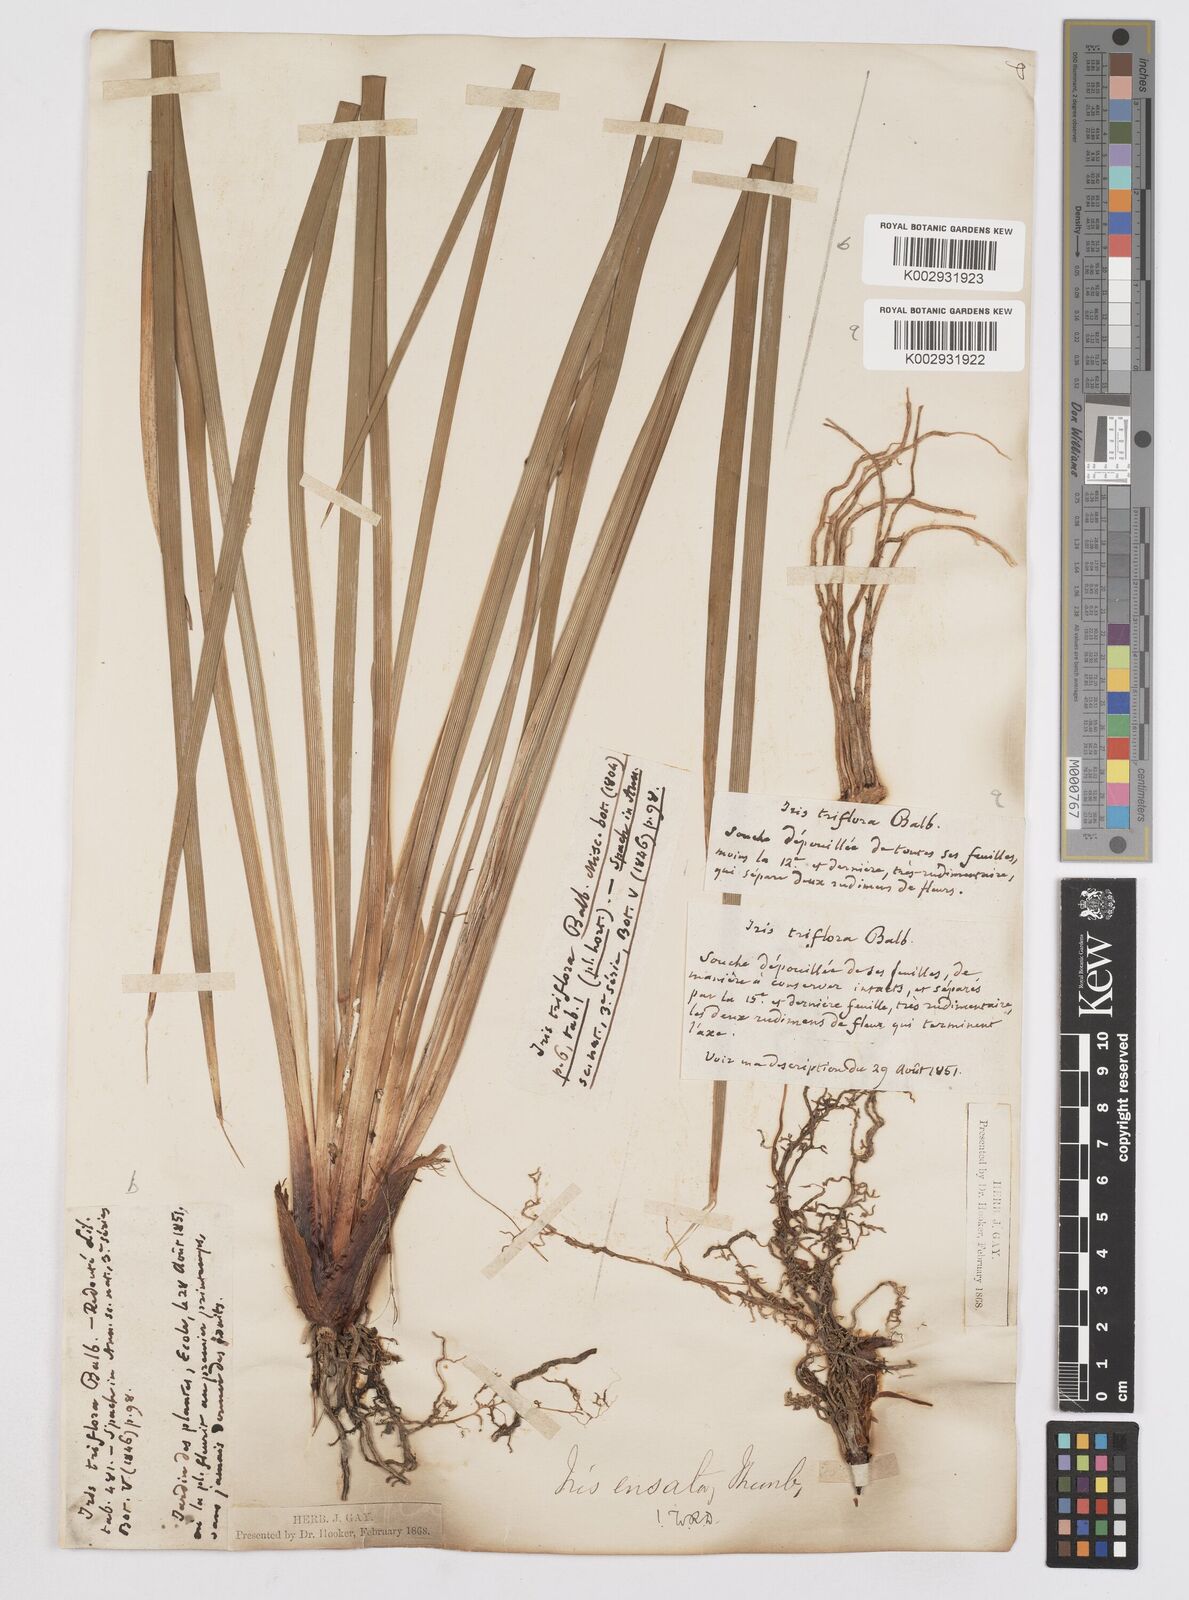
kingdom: Plantae
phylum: Tracheophyta
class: Liliopsida
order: Asparagales
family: Iridaceae
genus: Iris
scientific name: Iris ensata
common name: Beaked iris
